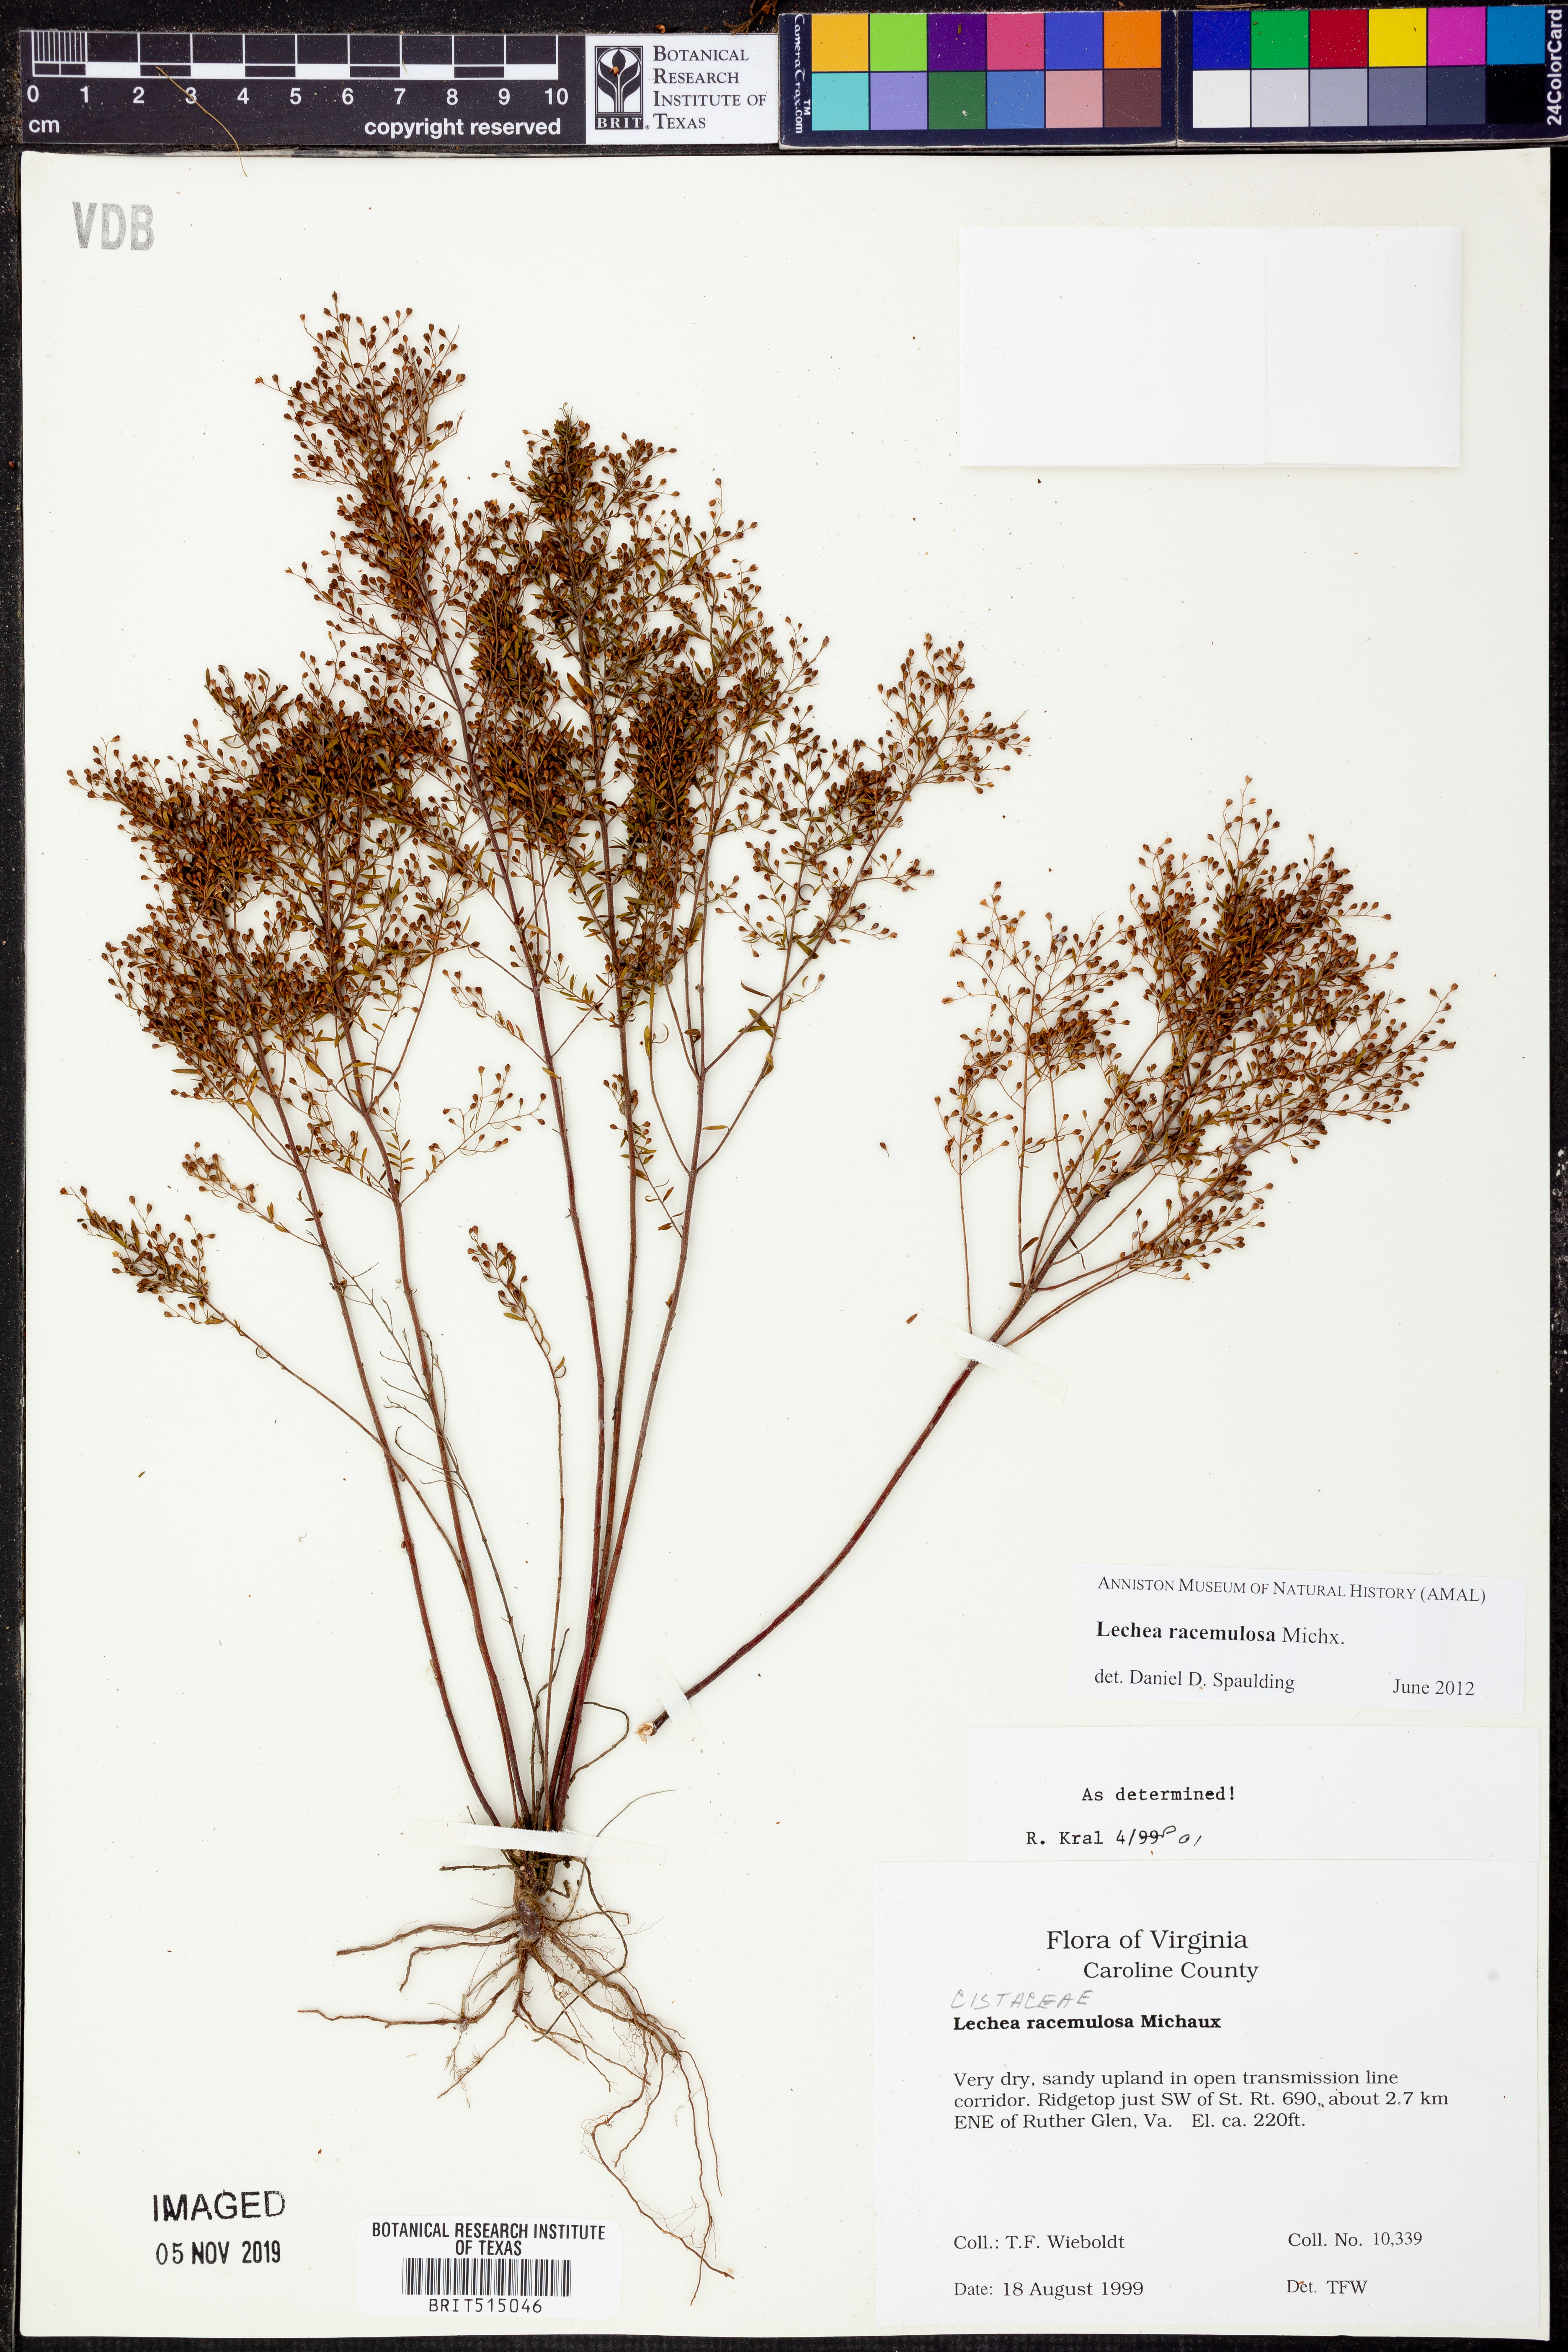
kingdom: Plantae
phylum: Tracheophyta
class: Magnoliopsida
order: Malvales
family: Cistaceae
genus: Lechea
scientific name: Lechea racemulosa
